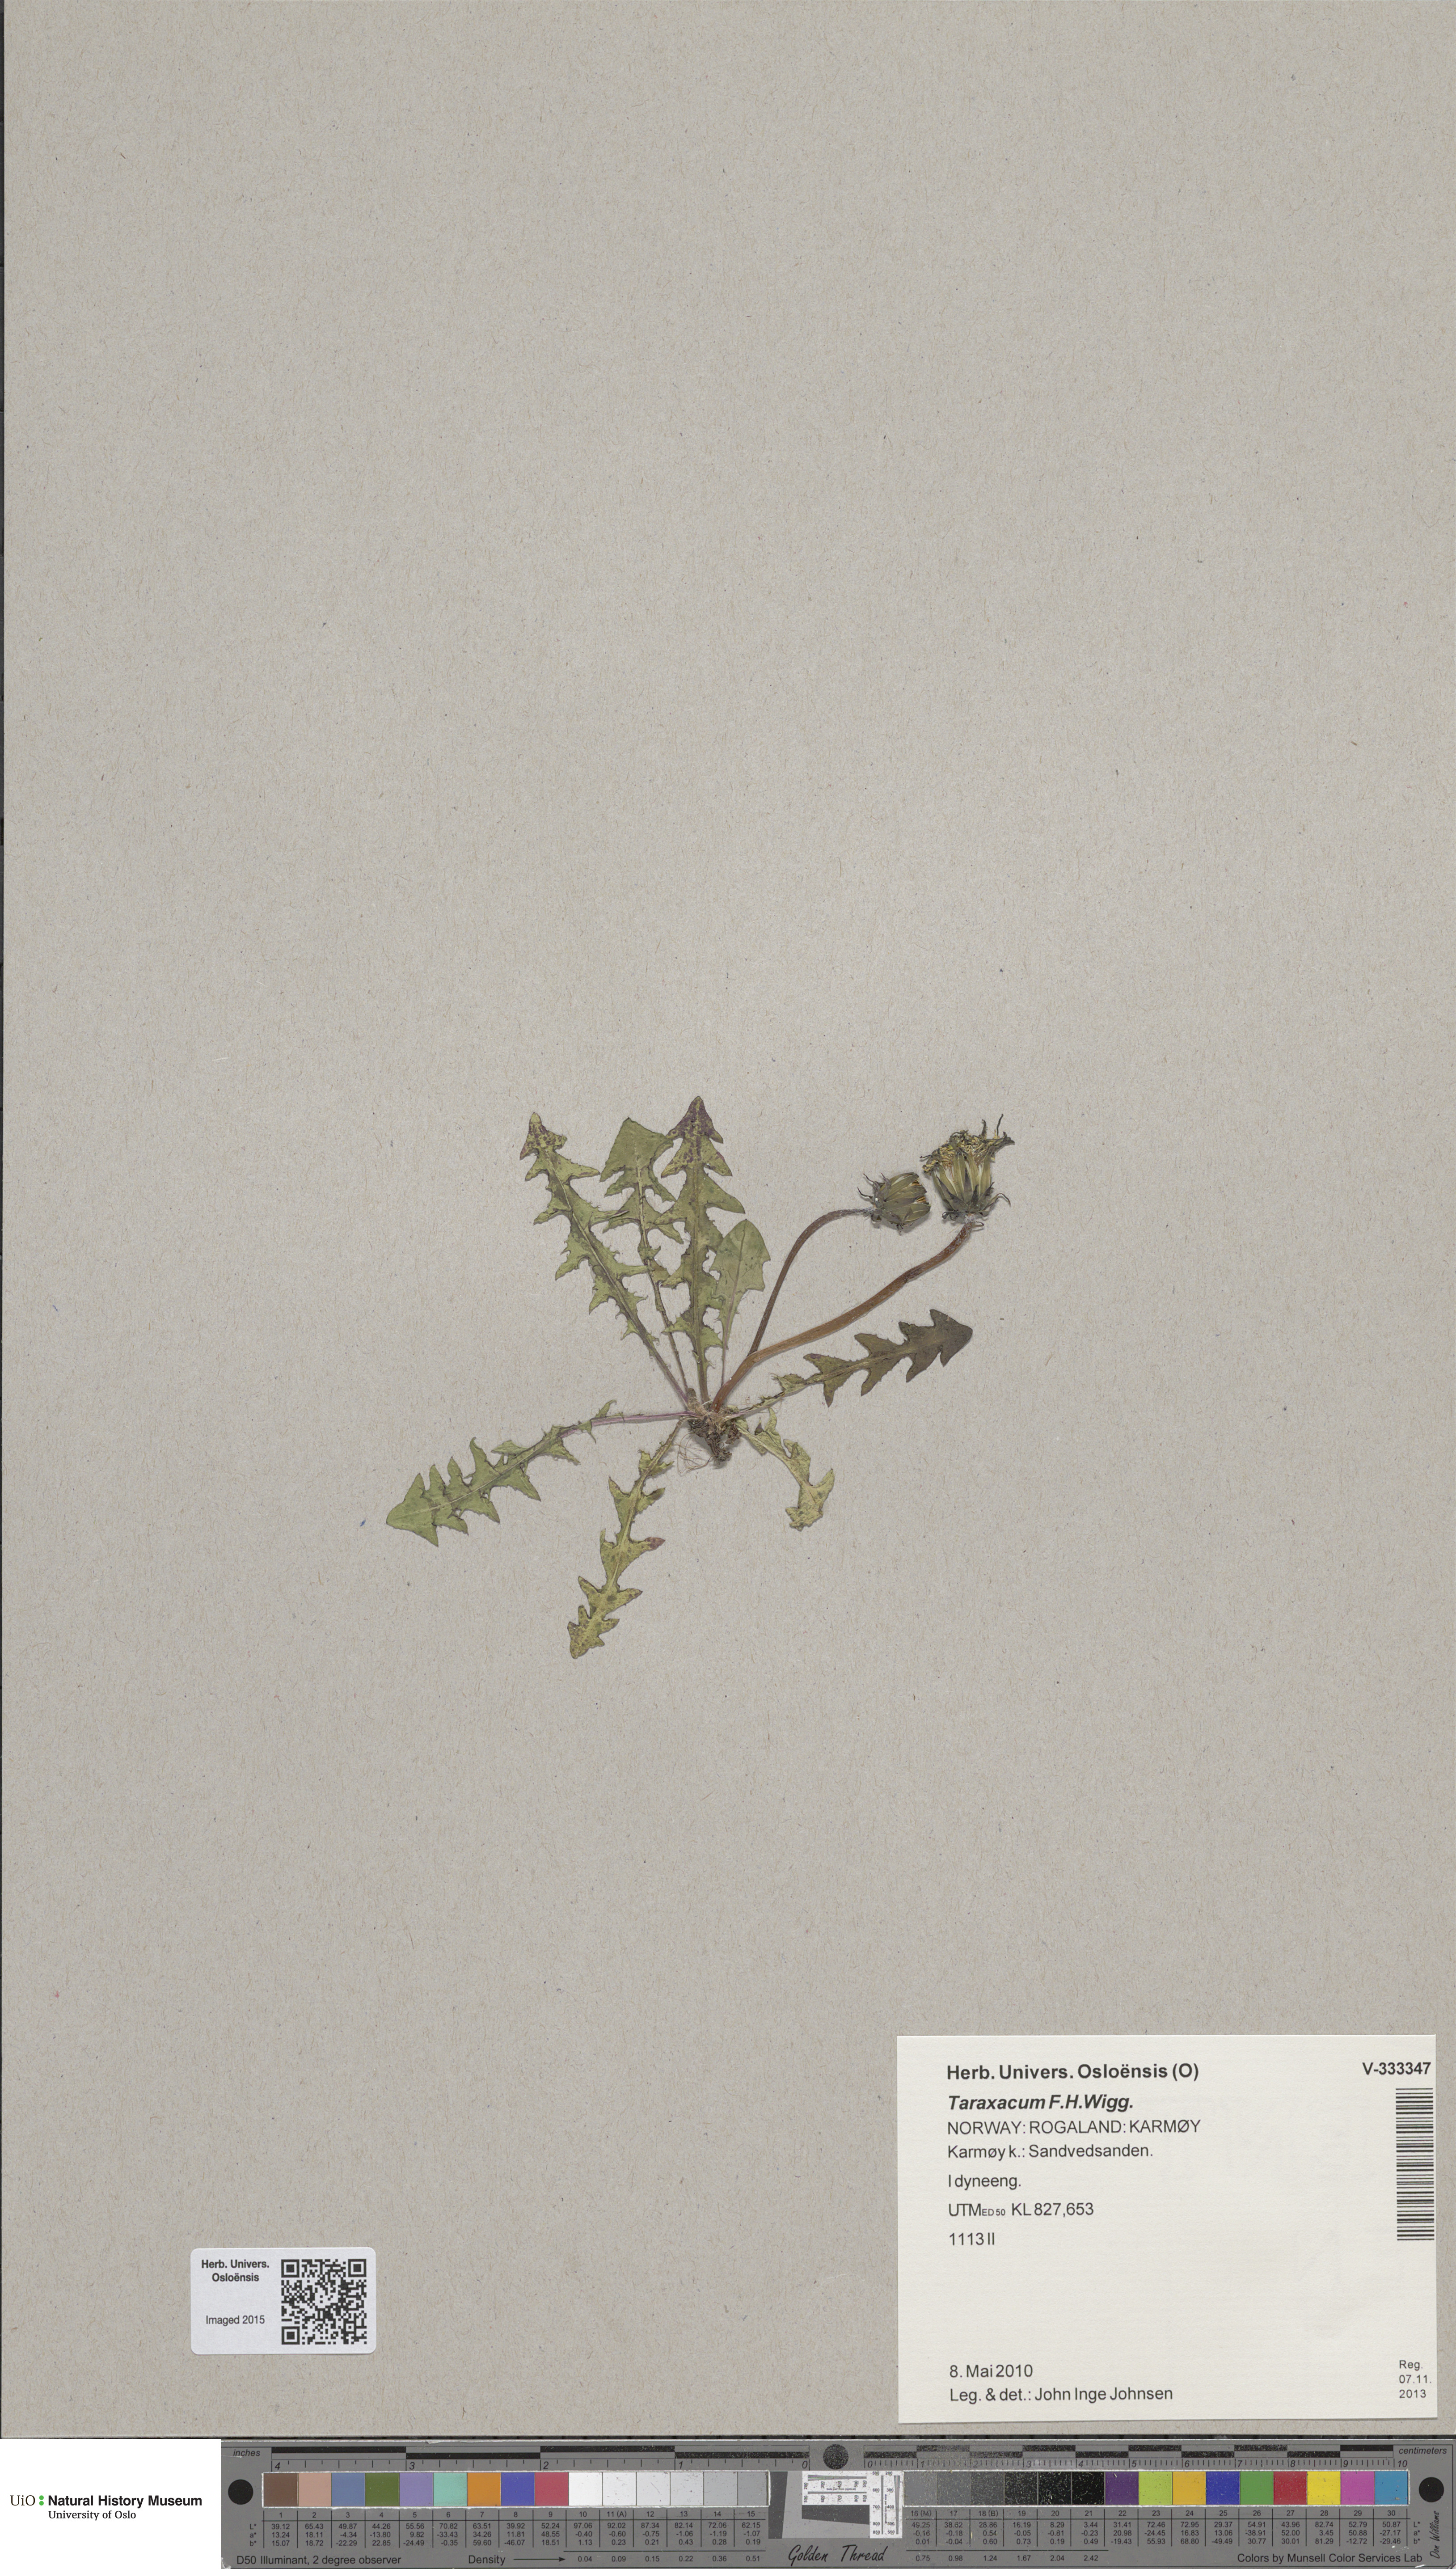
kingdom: Plantae
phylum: Tracheophyta
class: Magnoliopsida
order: Asterales
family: Asteraceae
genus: Taraxacum
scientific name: Taraxacum
